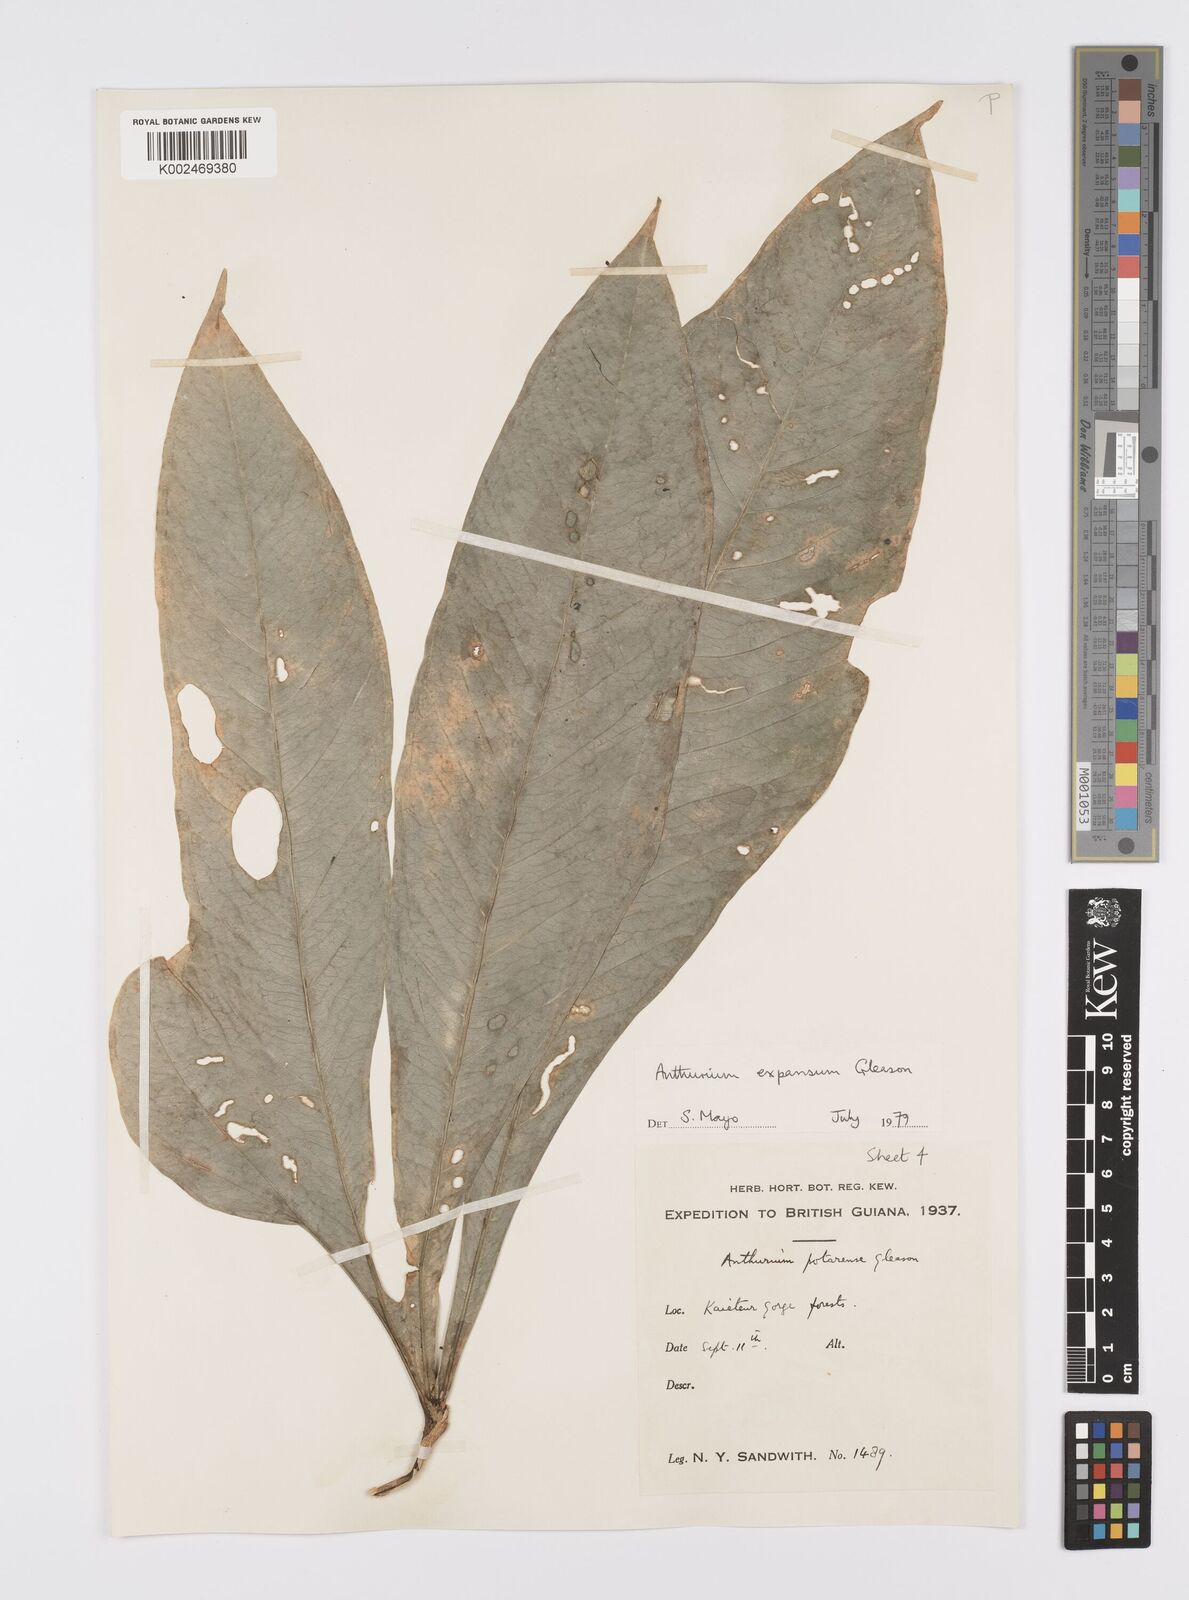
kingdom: Plantae
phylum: Tracheophyta
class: Liliopsida
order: Alismatales
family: Araceae
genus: Anthurium
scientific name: Anthurium expansum
